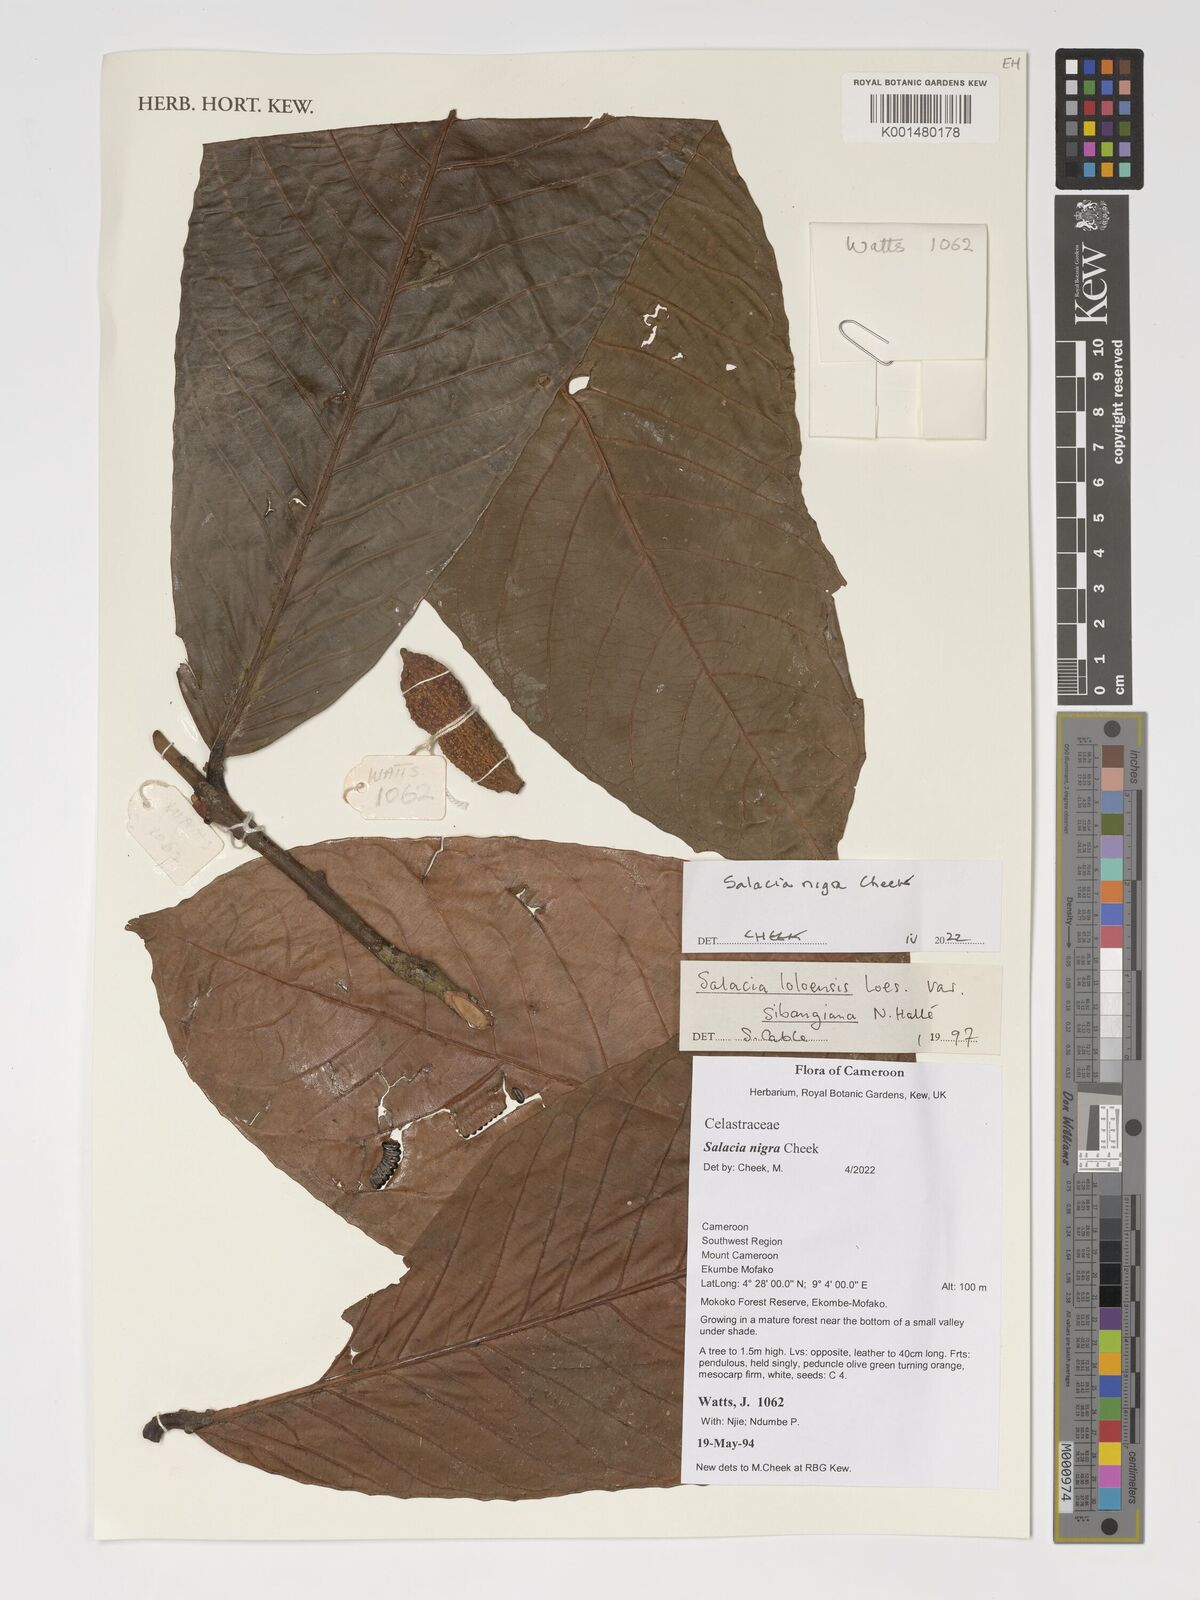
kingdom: Plantae
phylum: Tracheophyta
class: Magnoliopsida
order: Celastrales
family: Celastraceae
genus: Salacia
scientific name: Salacia nigra
